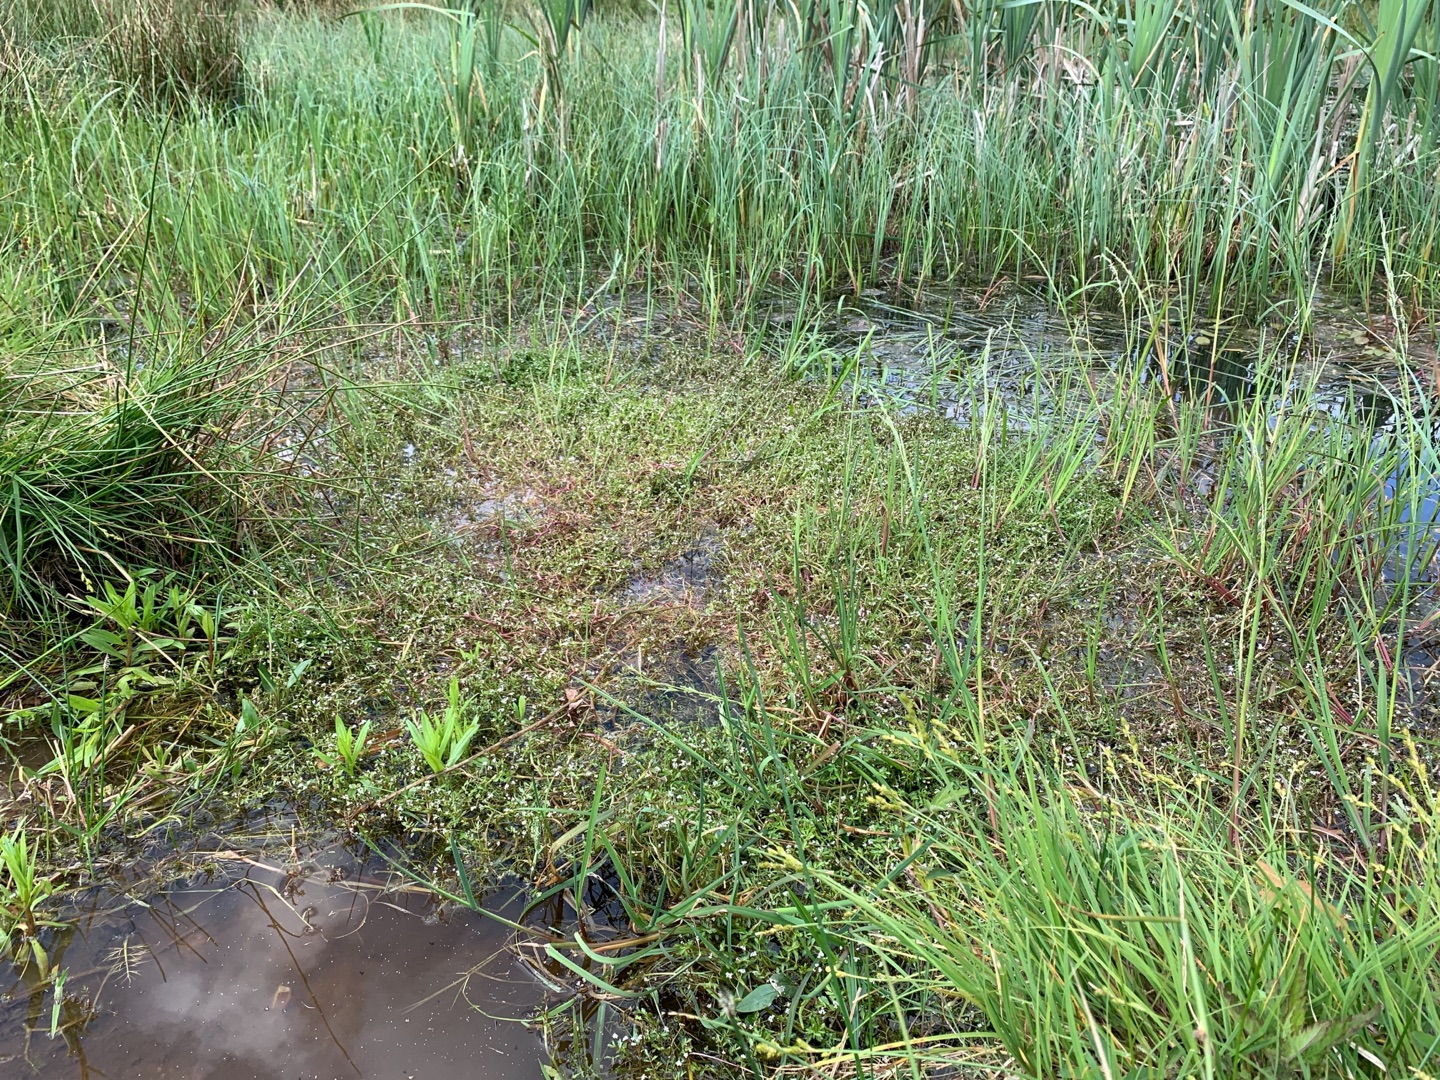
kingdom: Plantae
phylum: Tracheophyta
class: Magnoliopsida
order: Apiales
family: Apiaceae
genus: Helosciadium
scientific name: Helosciadium inundatum
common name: Svømmende sumpskærm
